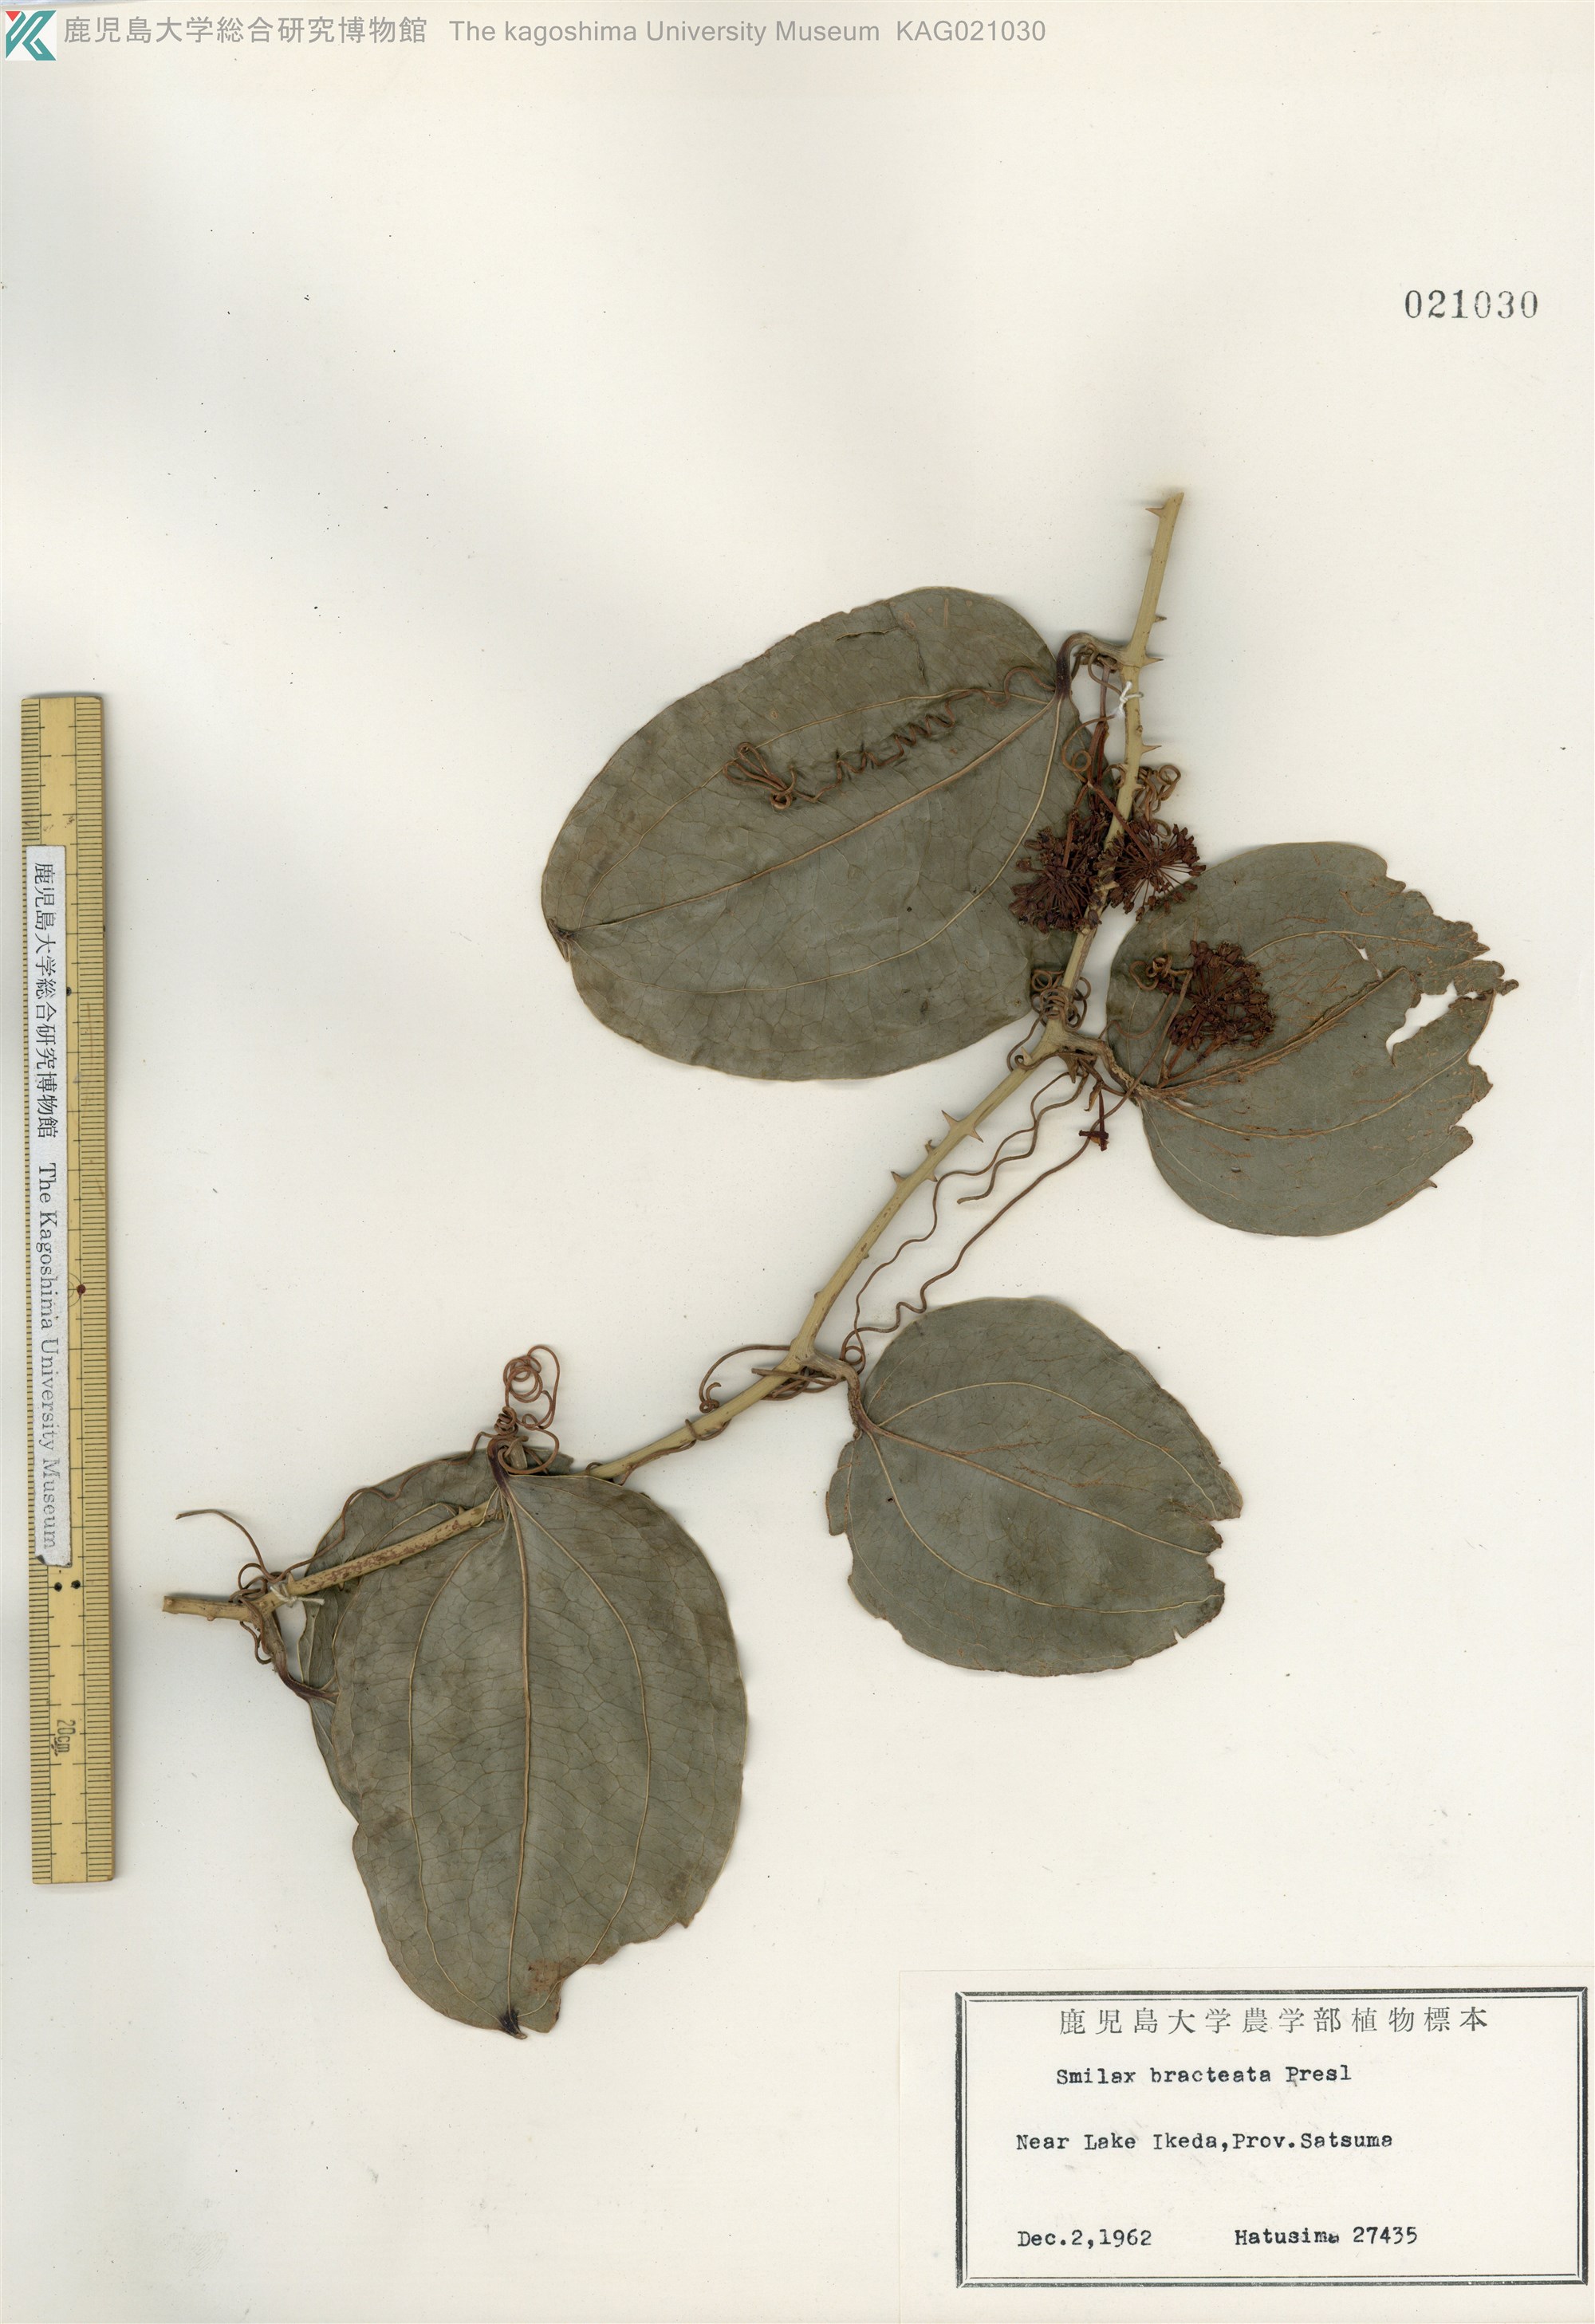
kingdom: Plantae
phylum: Tracheophyta
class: Liliopsida
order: Liliales
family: Smilacaceae
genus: Smilax
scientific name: Smilax bracteata
